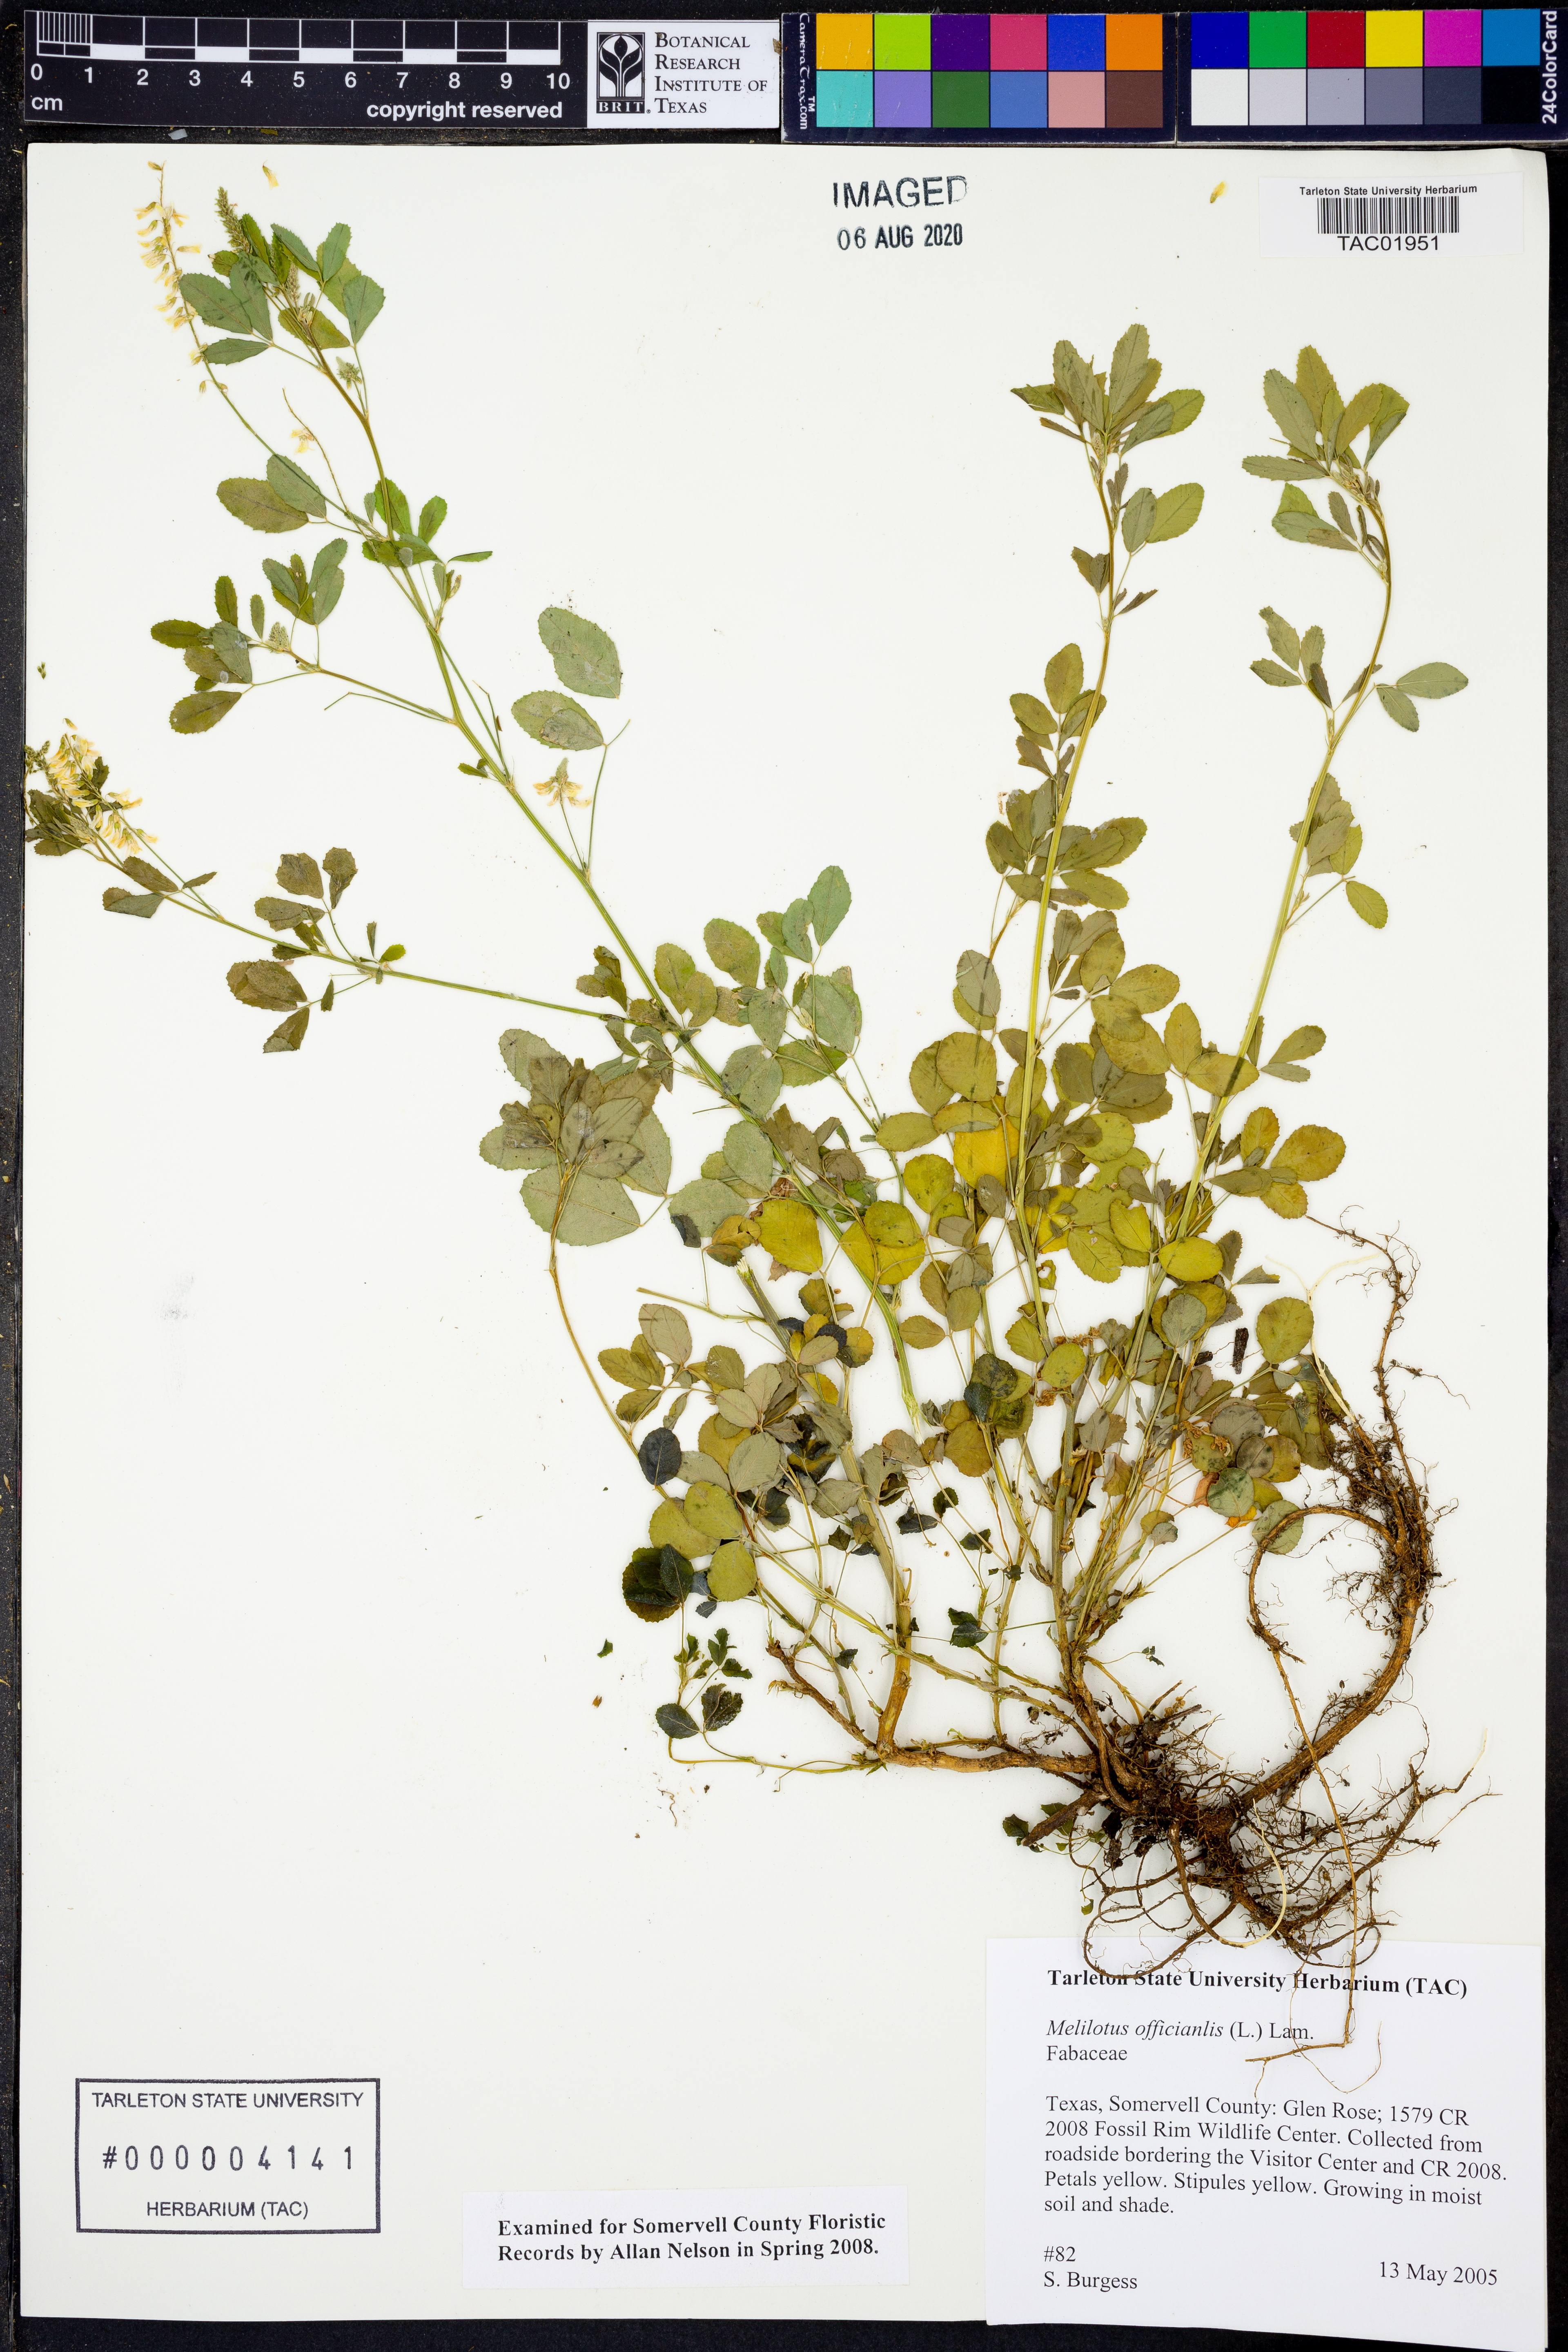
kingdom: Plantae
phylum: Tracheophyta
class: Magnoliopsida
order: Fabales
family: Fabaceae
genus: Melilotus
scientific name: Melilotus officinalis
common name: Sweetclover
